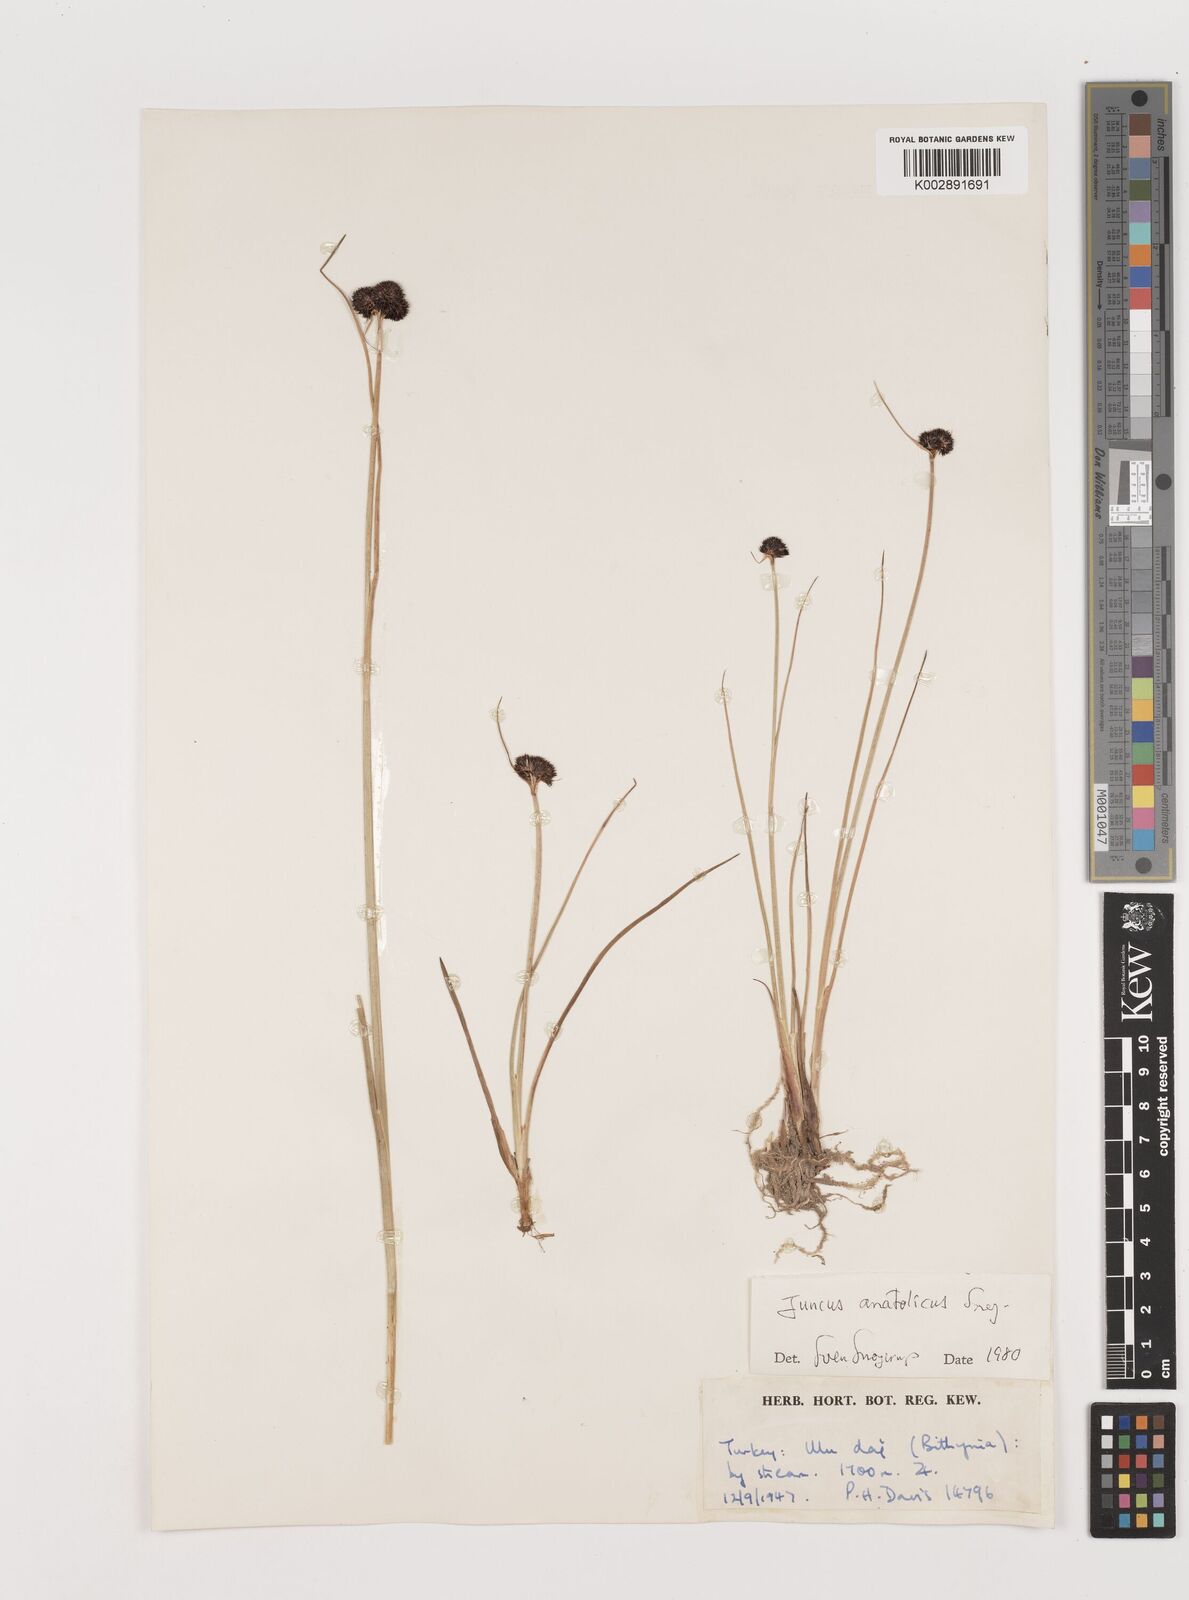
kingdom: Plantae
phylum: Tracheophyta
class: Liliopsida
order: Poales
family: Juncaceae
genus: Juncus
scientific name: Juncus alpigenus
